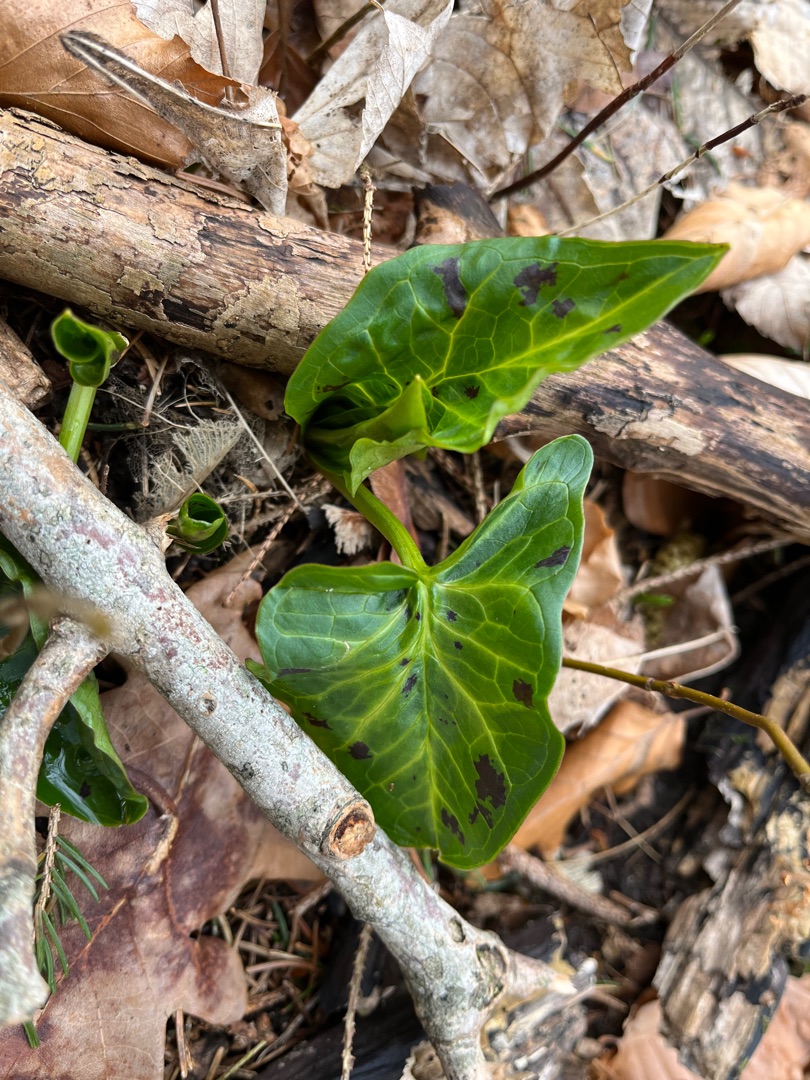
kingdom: Plantae
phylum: Tracheophyta
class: Liliopsida
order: Alismatales
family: Araceae
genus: Arum
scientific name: Arum maculatum
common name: Plettet arum
